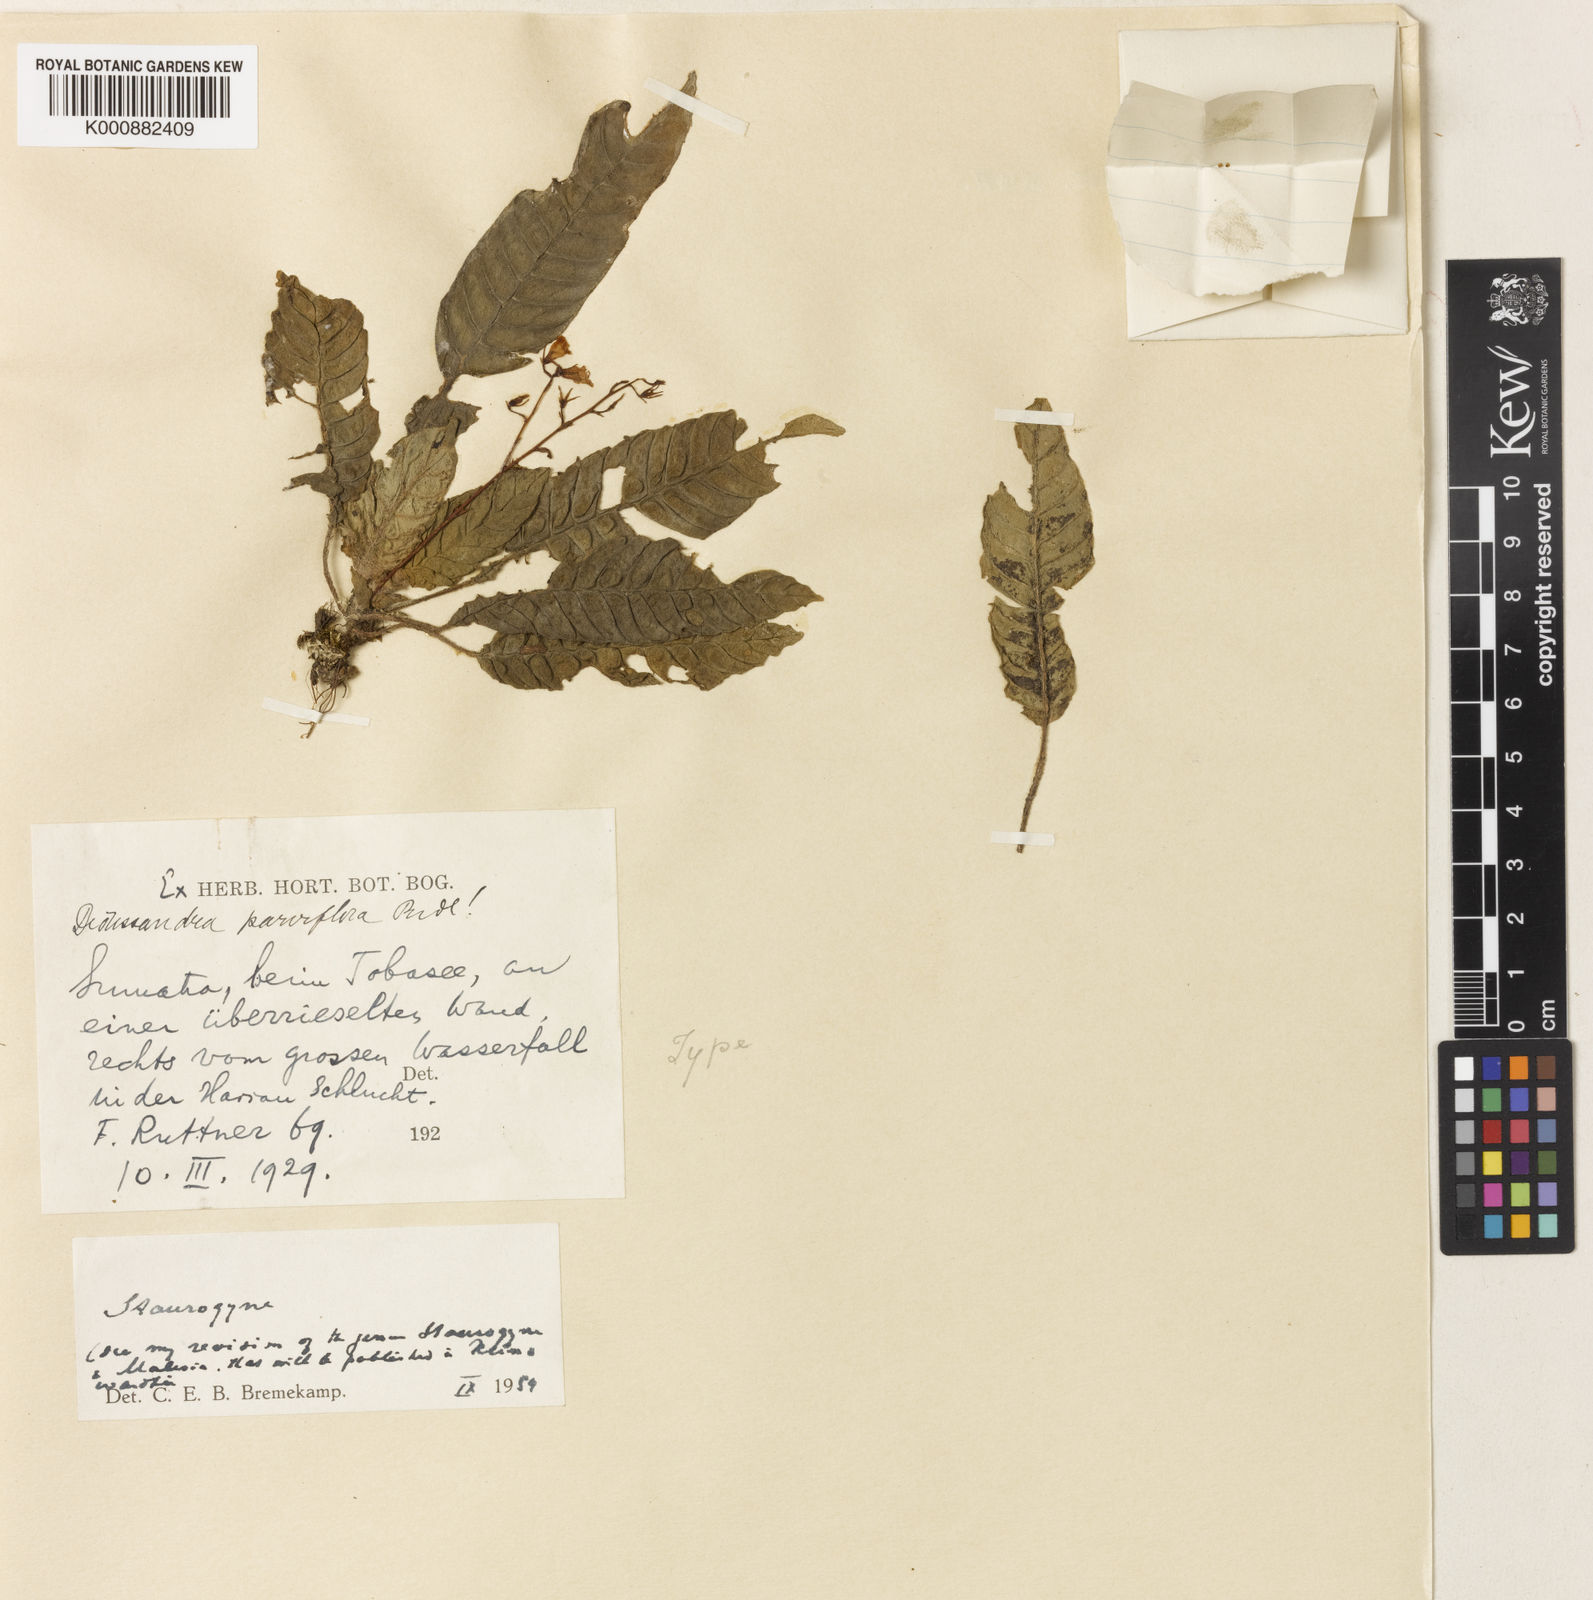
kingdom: Plantae
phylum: Tracheophyta
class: Magnoliopsida
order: Lamiales
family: Acanthaceae
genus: Staurogyne
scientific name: Staurogyne
